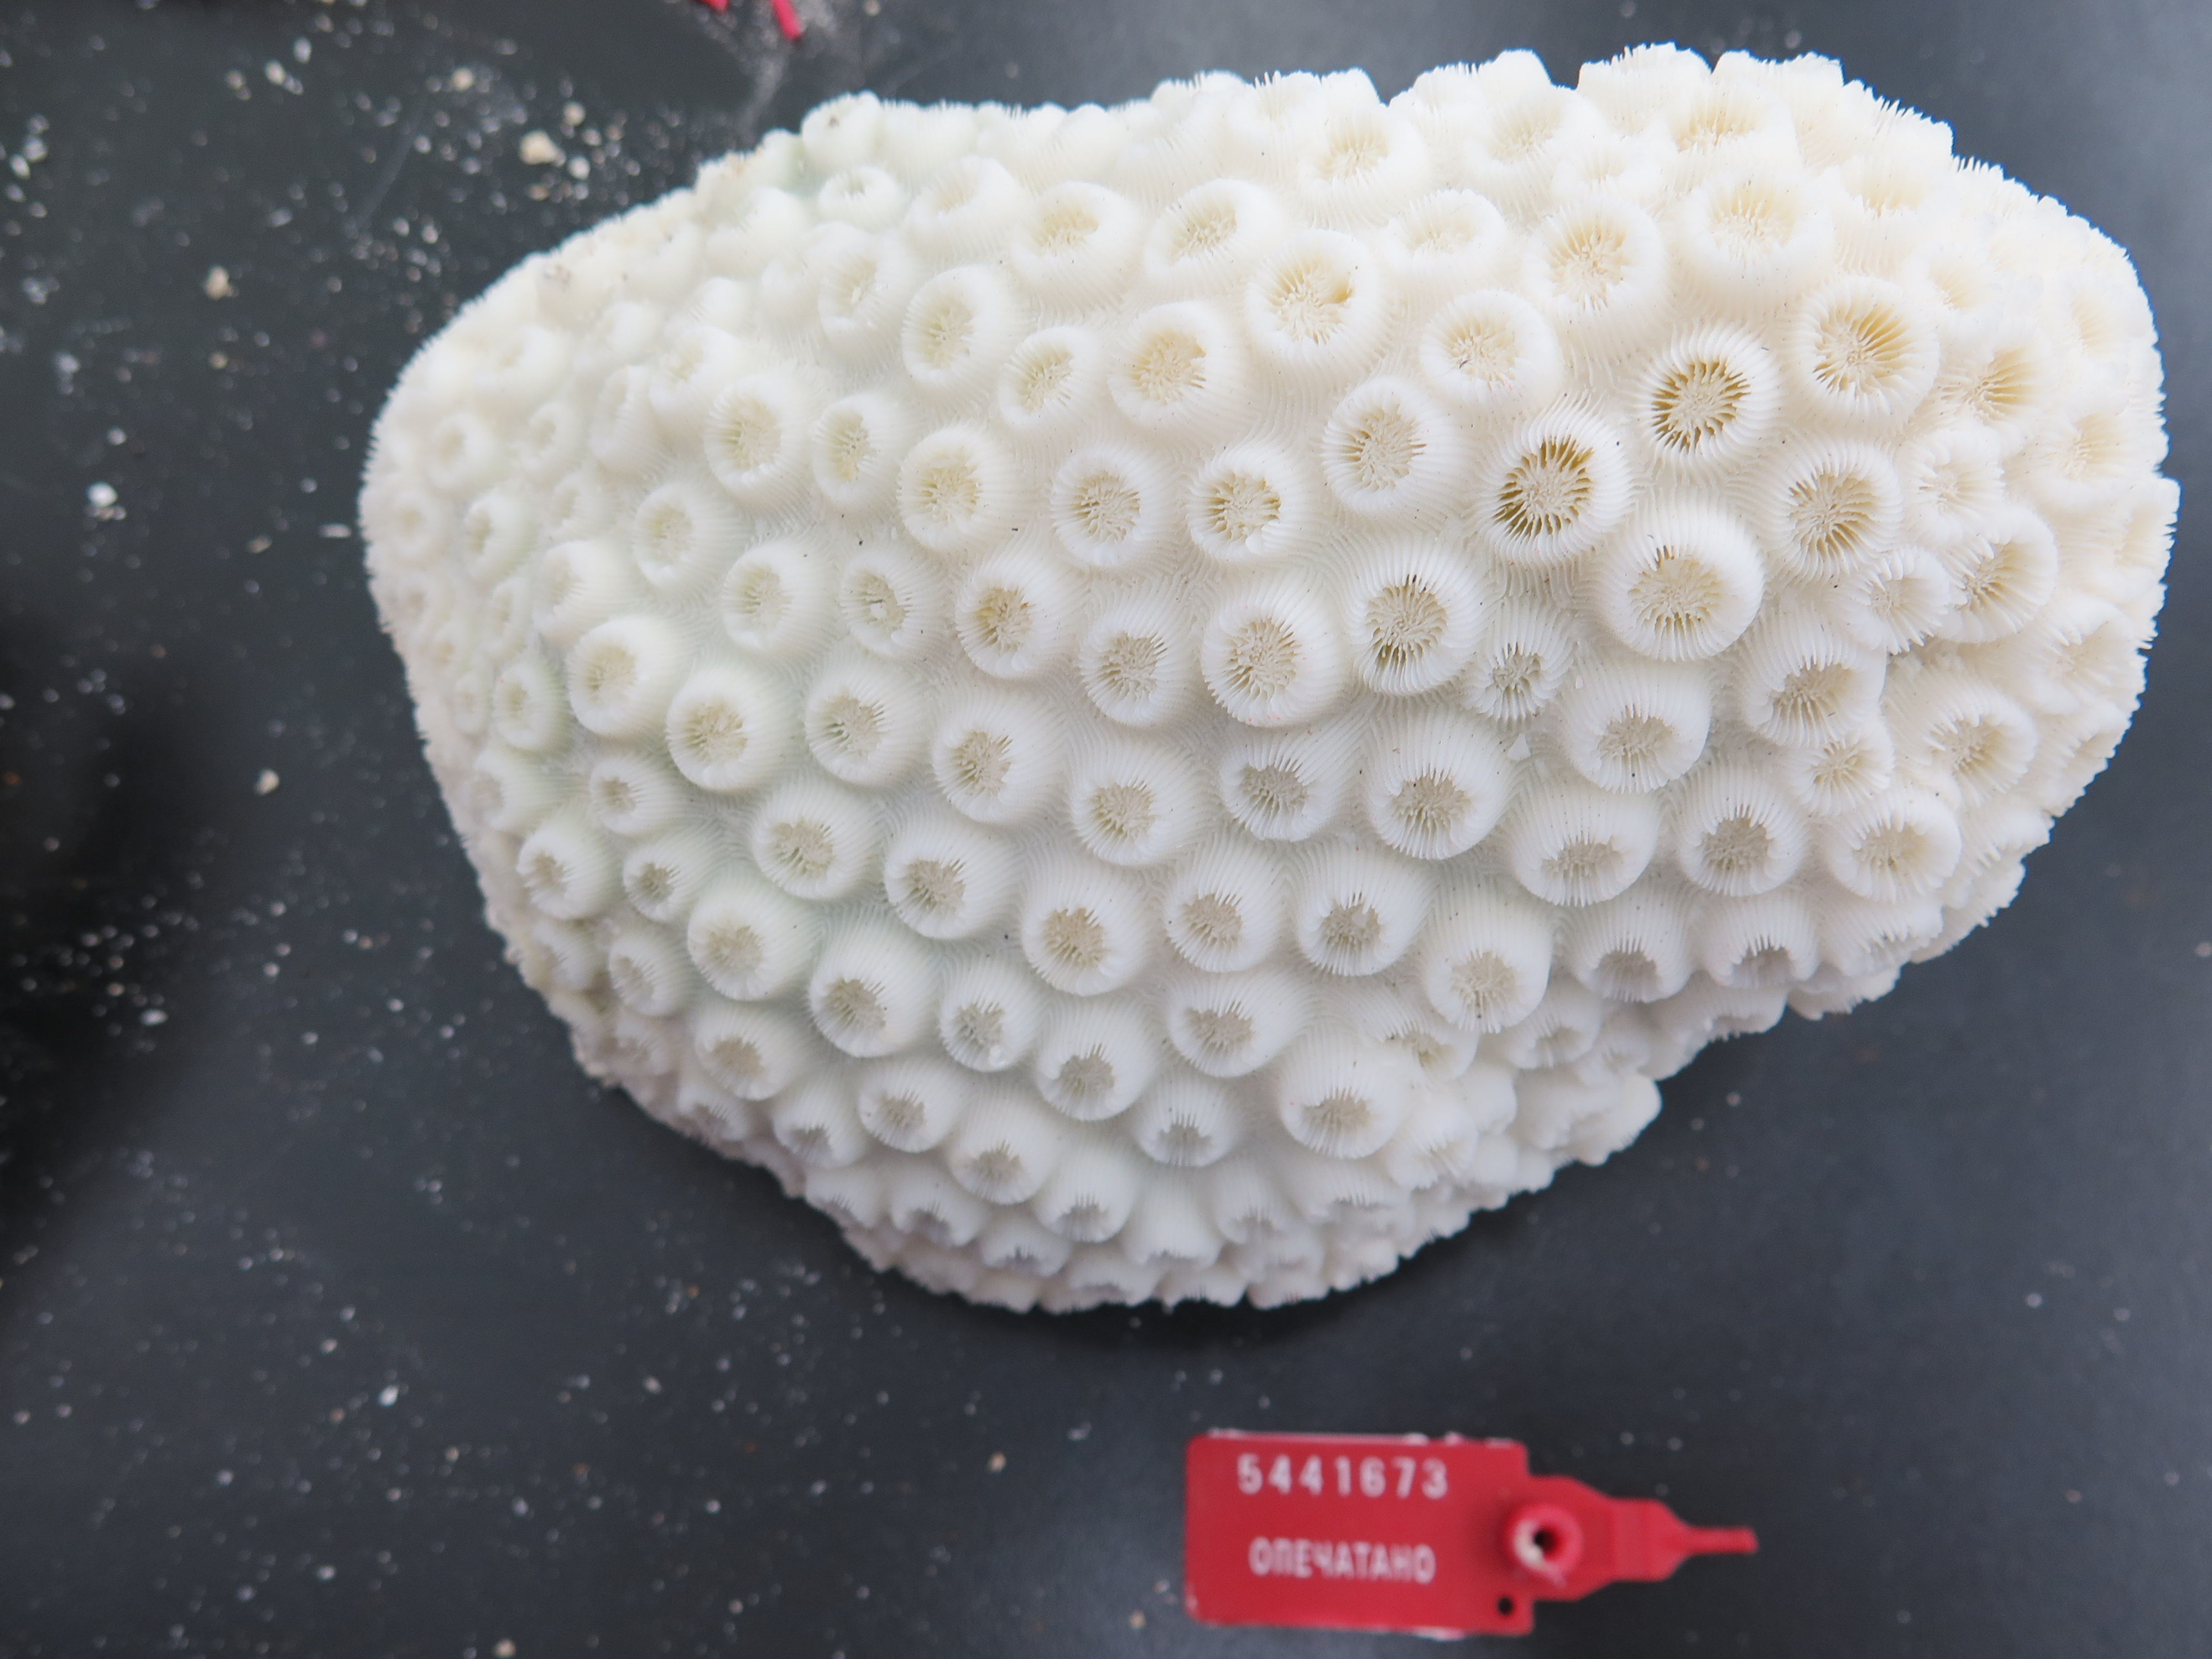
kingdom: Animalia
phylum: Echinodermata
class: Ophiuroidea
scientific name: Ophiuroidea
